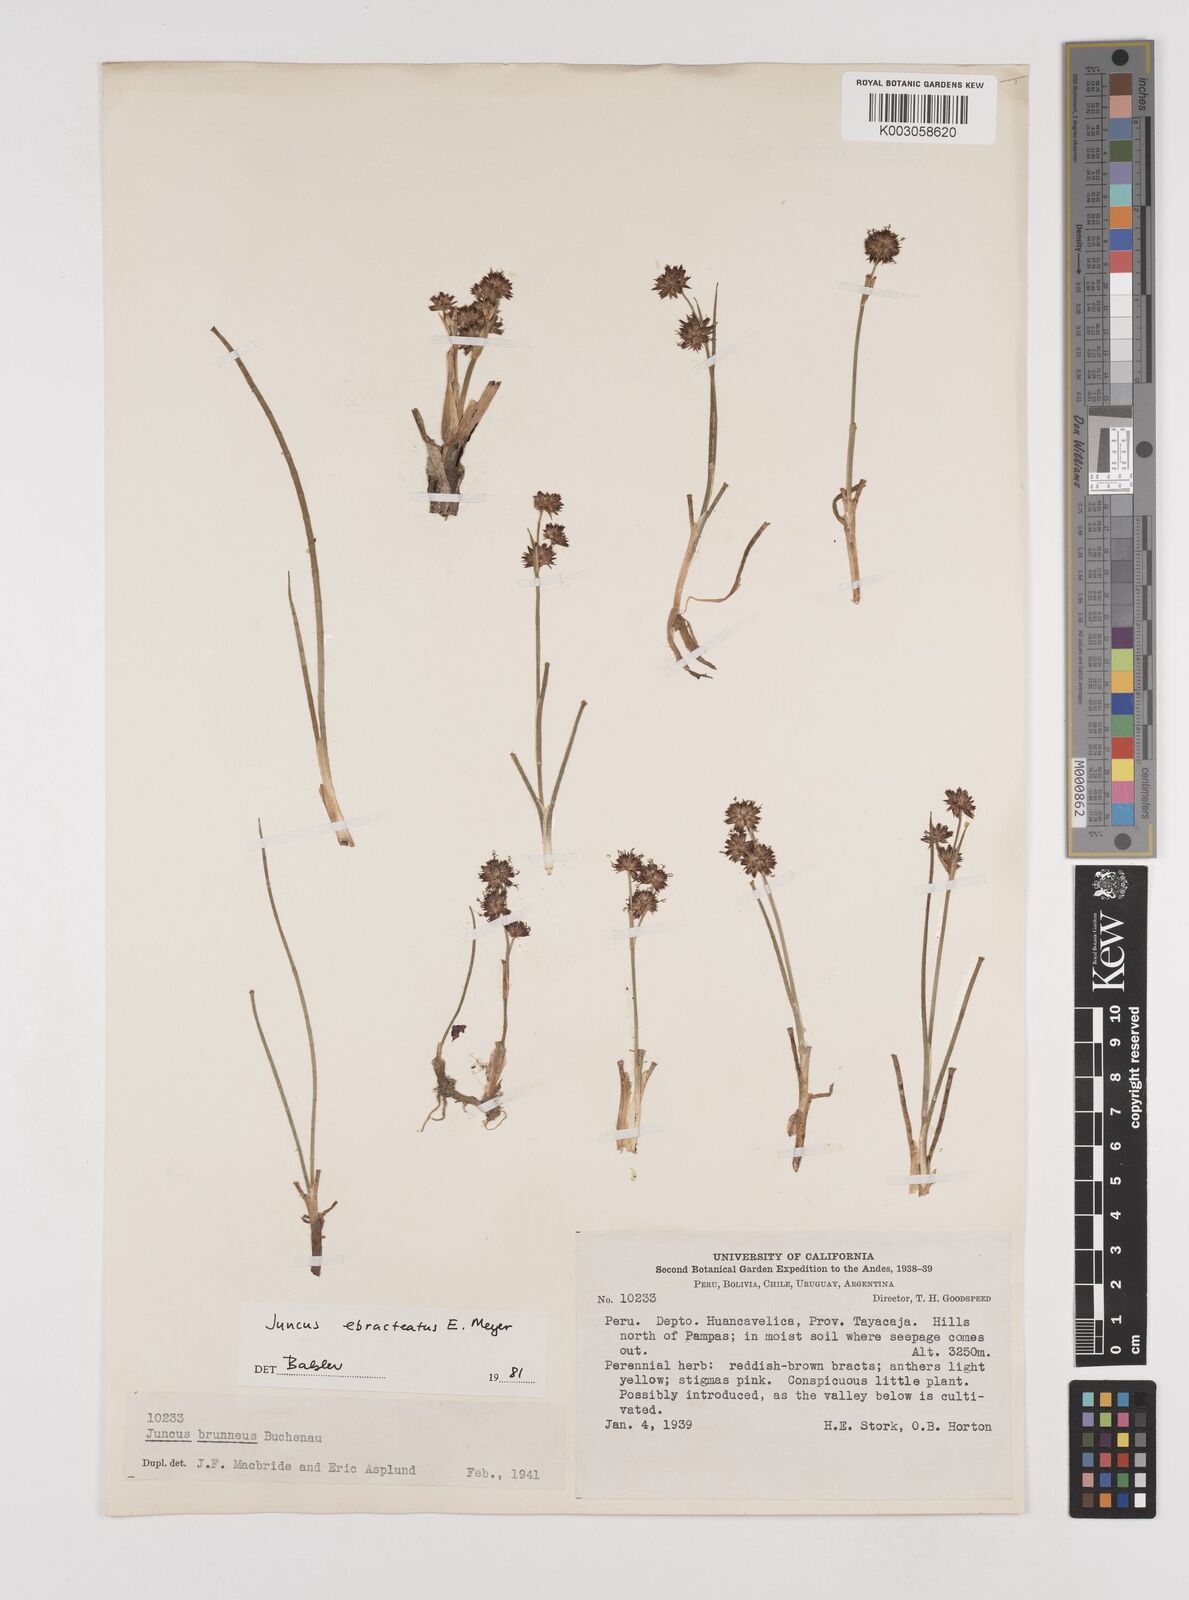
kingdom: Plantae
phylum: Tracheophyta
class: Liliopsida
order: Poales
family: Juncaceae
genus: Juncus
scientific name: Juncus ebracteatus
